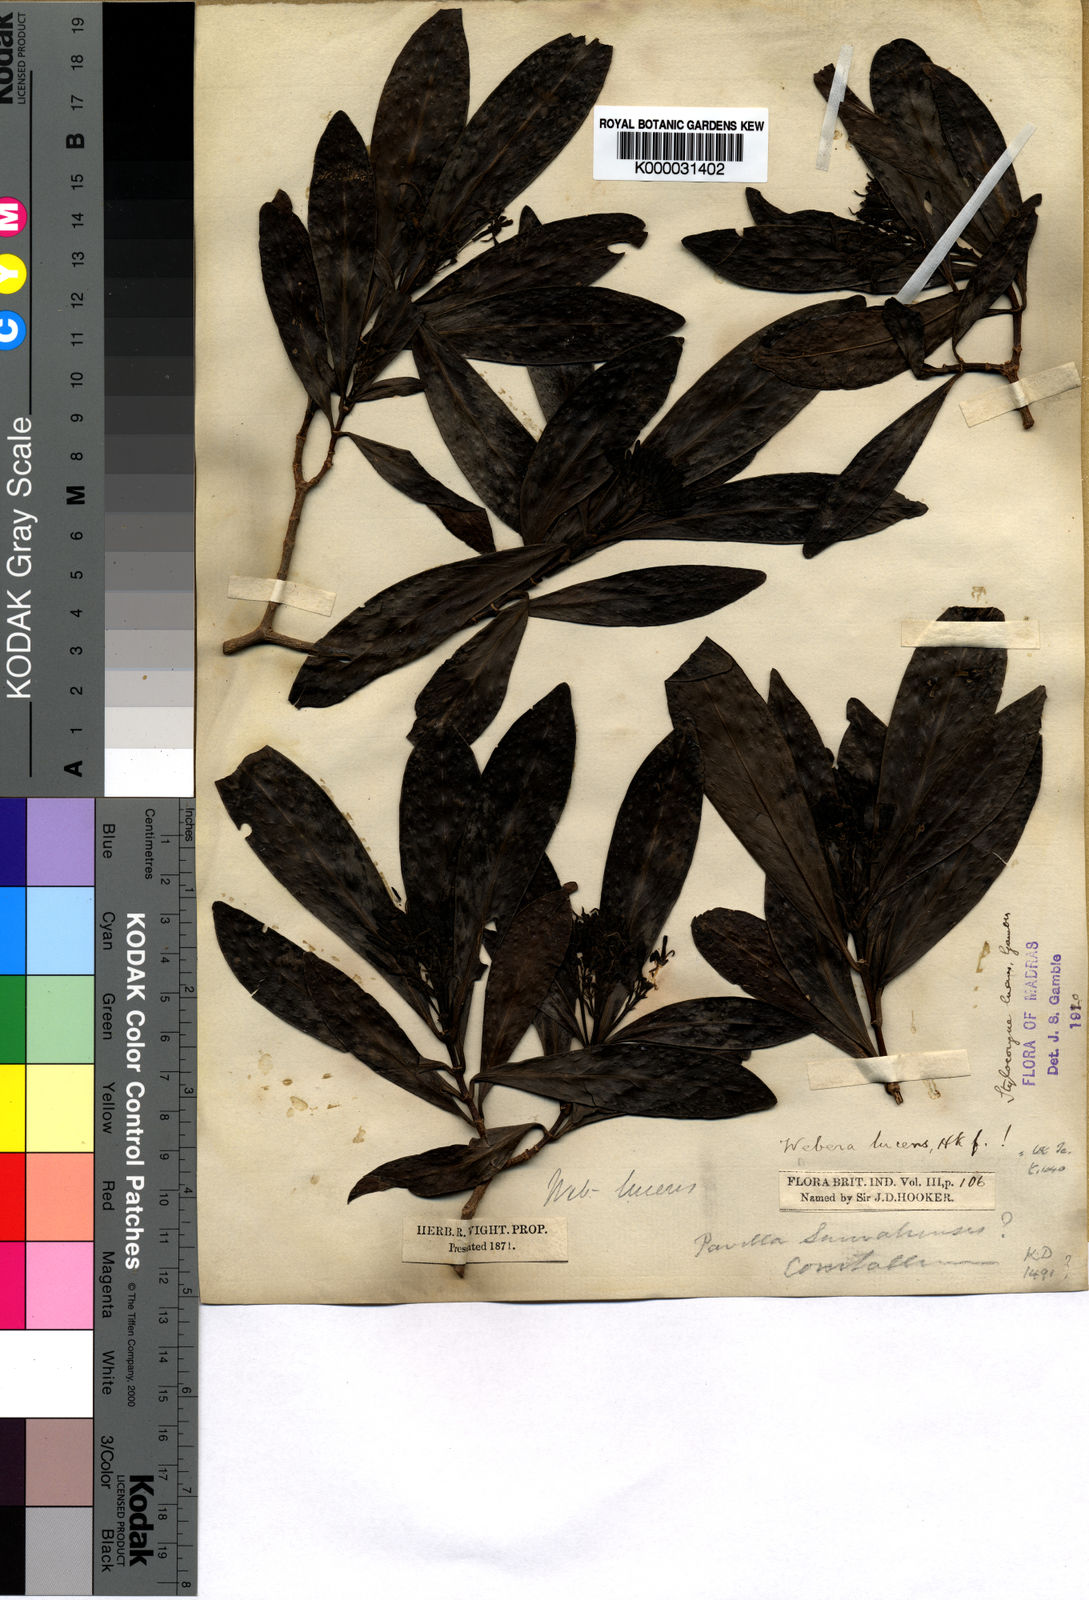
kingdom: Plantae
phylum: Tracheophyta
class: Magnoliopsida
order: Gentianales
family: Rubiaceae
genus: Tarenna
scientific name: Tarenna alpestris
